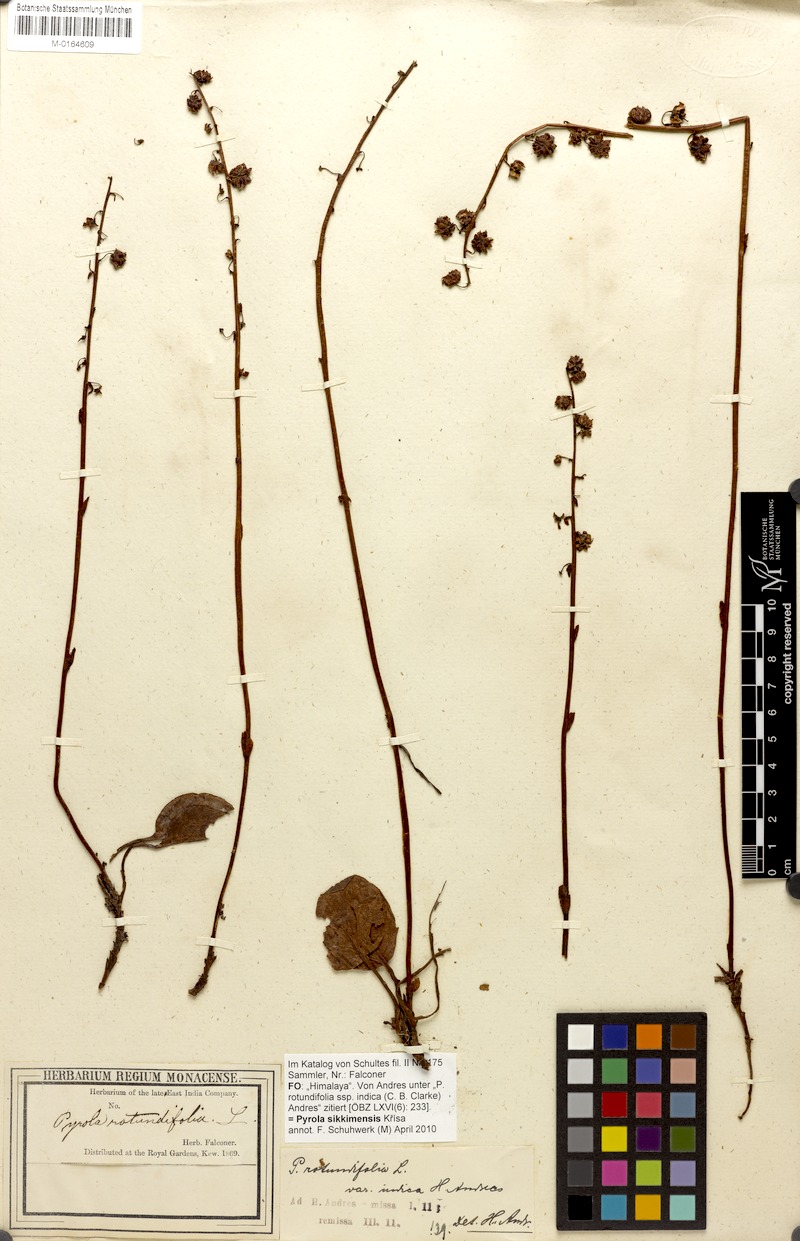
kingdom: Plantae
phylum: Tracheophyta
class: Magnoliopsida
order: Ericales
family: Ericaceae
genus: Pyrola
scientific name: Pyrola asarifolia
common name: Bog wintergreen
